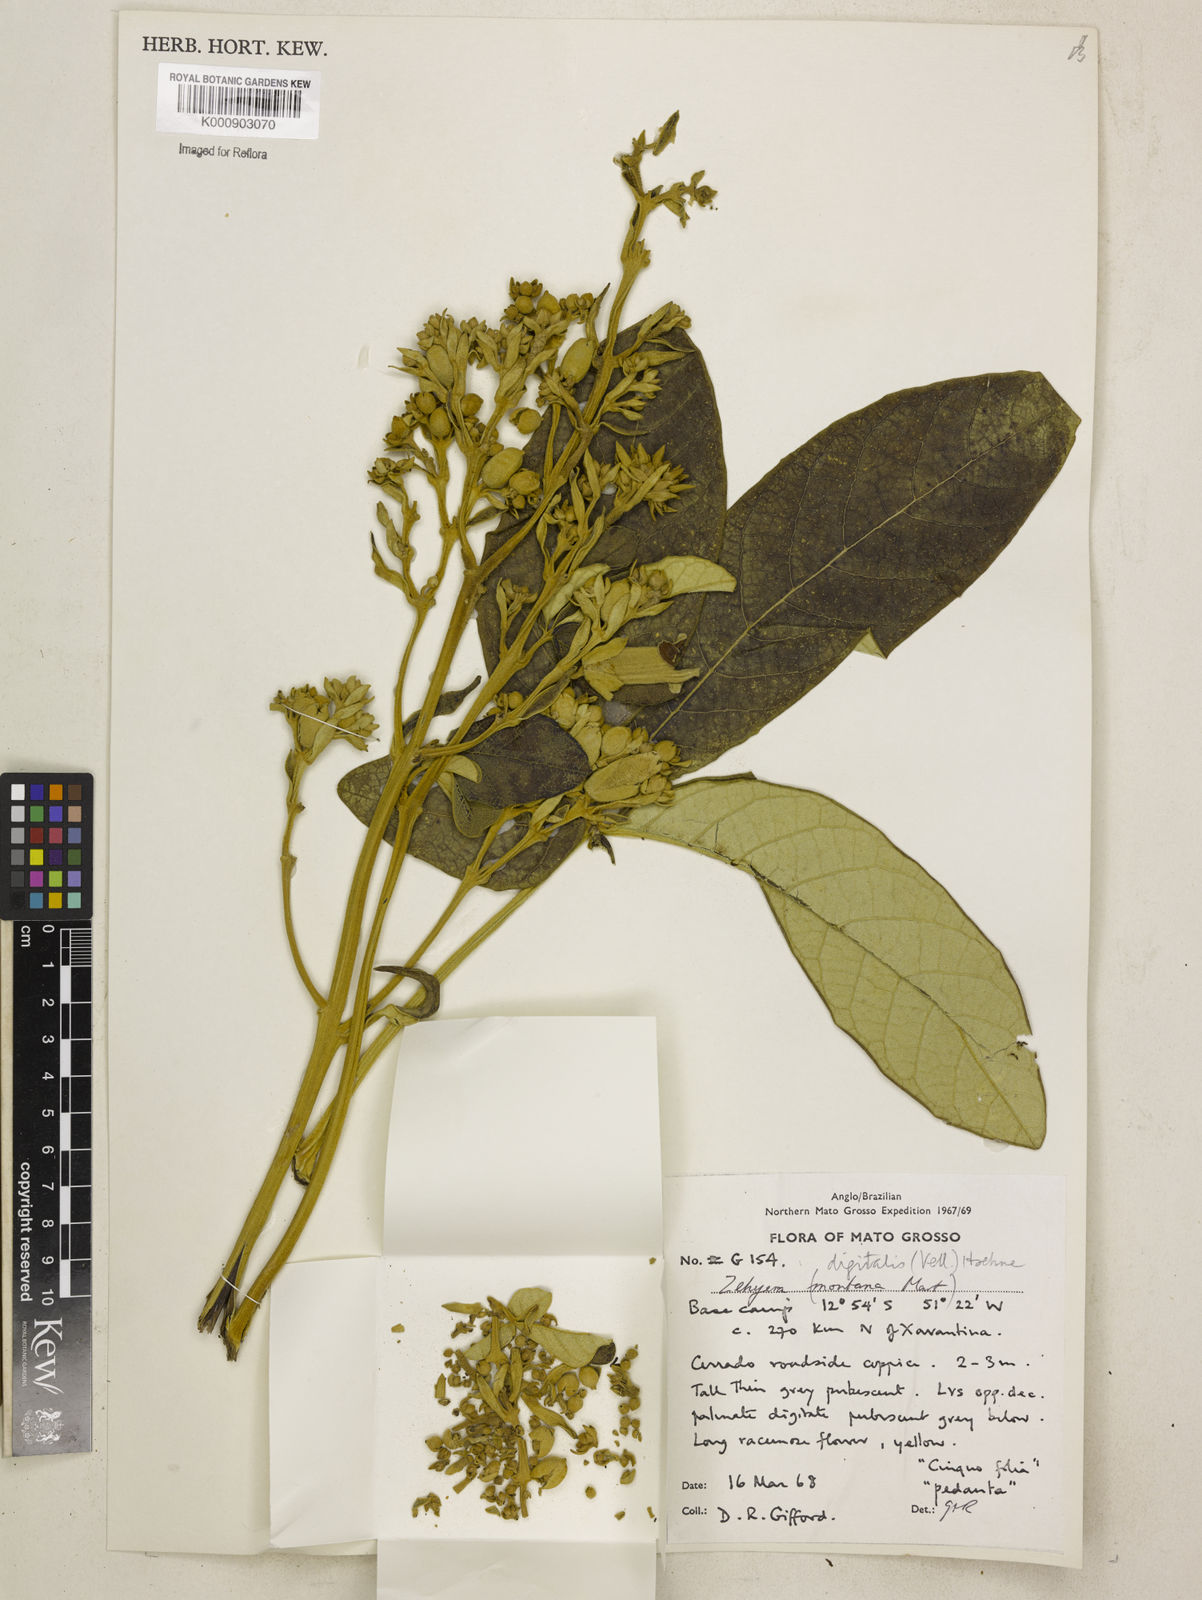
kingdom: Plantae
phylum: Tracheophyta
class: Magnoliopsida
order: Lamiales
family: Bignoniaceae
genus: Zeyheria
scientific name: Zeyheria
